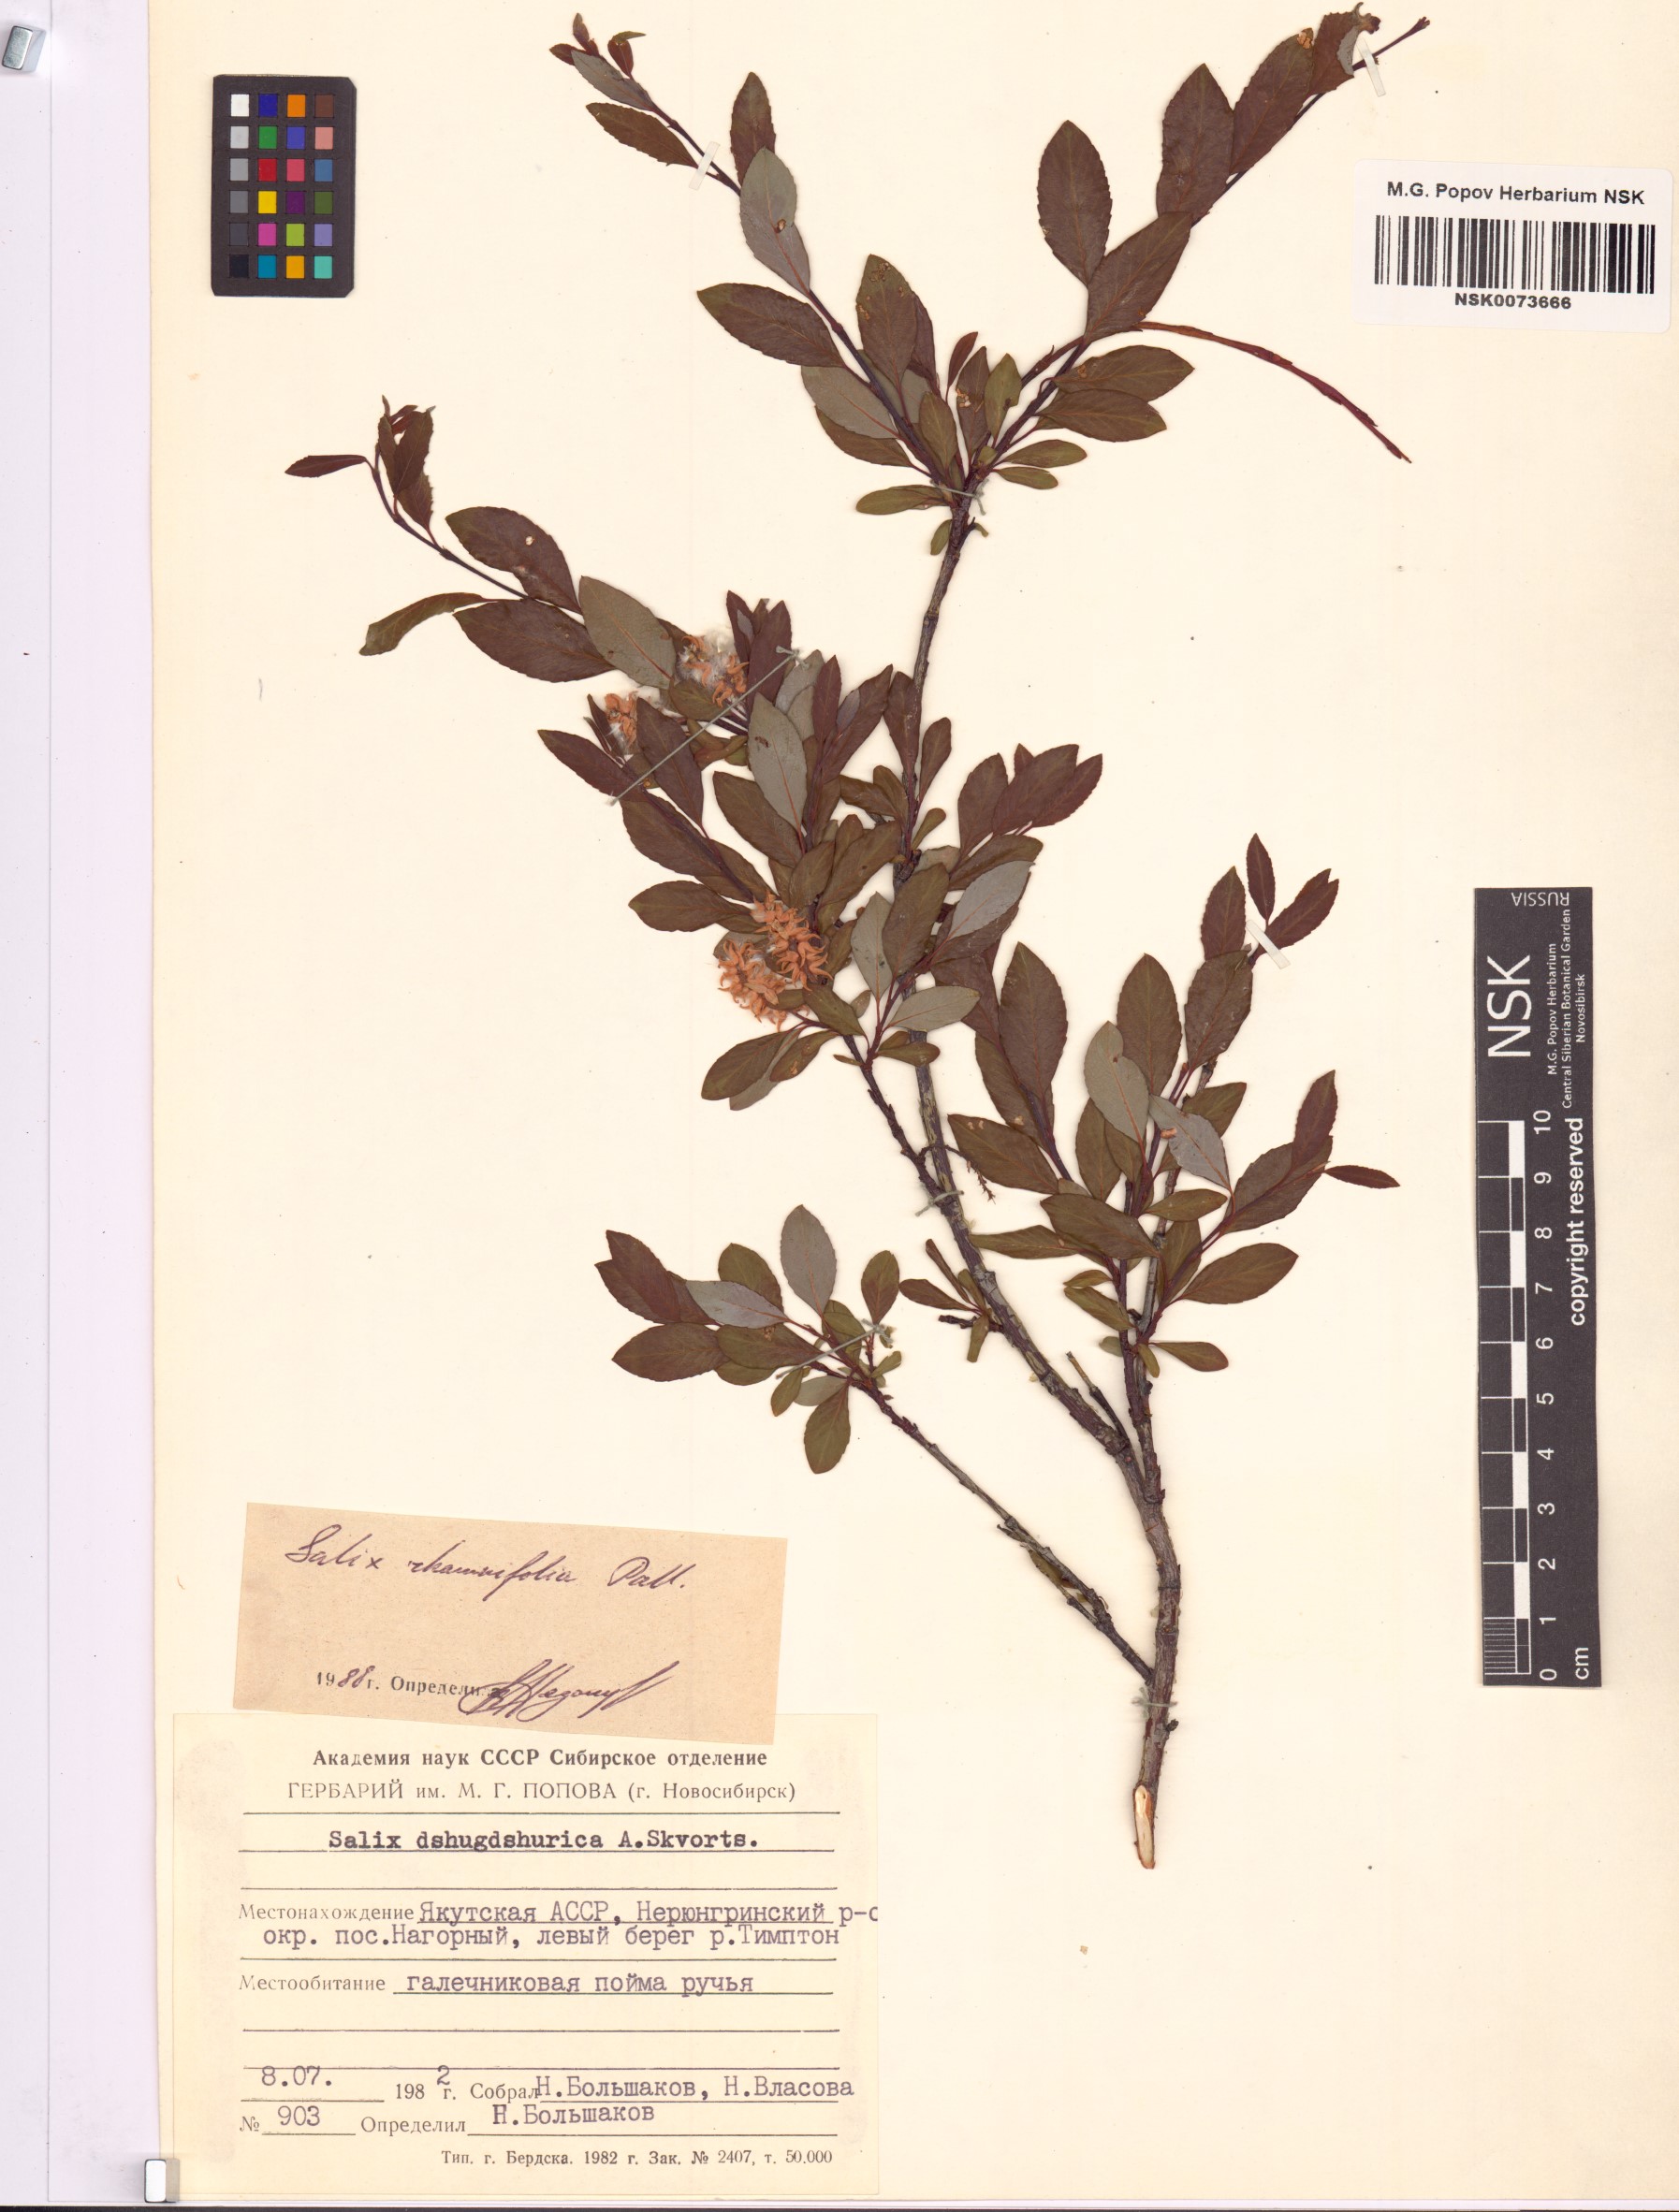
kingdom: Plantae
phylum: Tracheophyta
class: Magnoliopsida
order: Malpighiales
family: Salicaceae
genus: Salix
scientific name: Salix rhamnifolia
